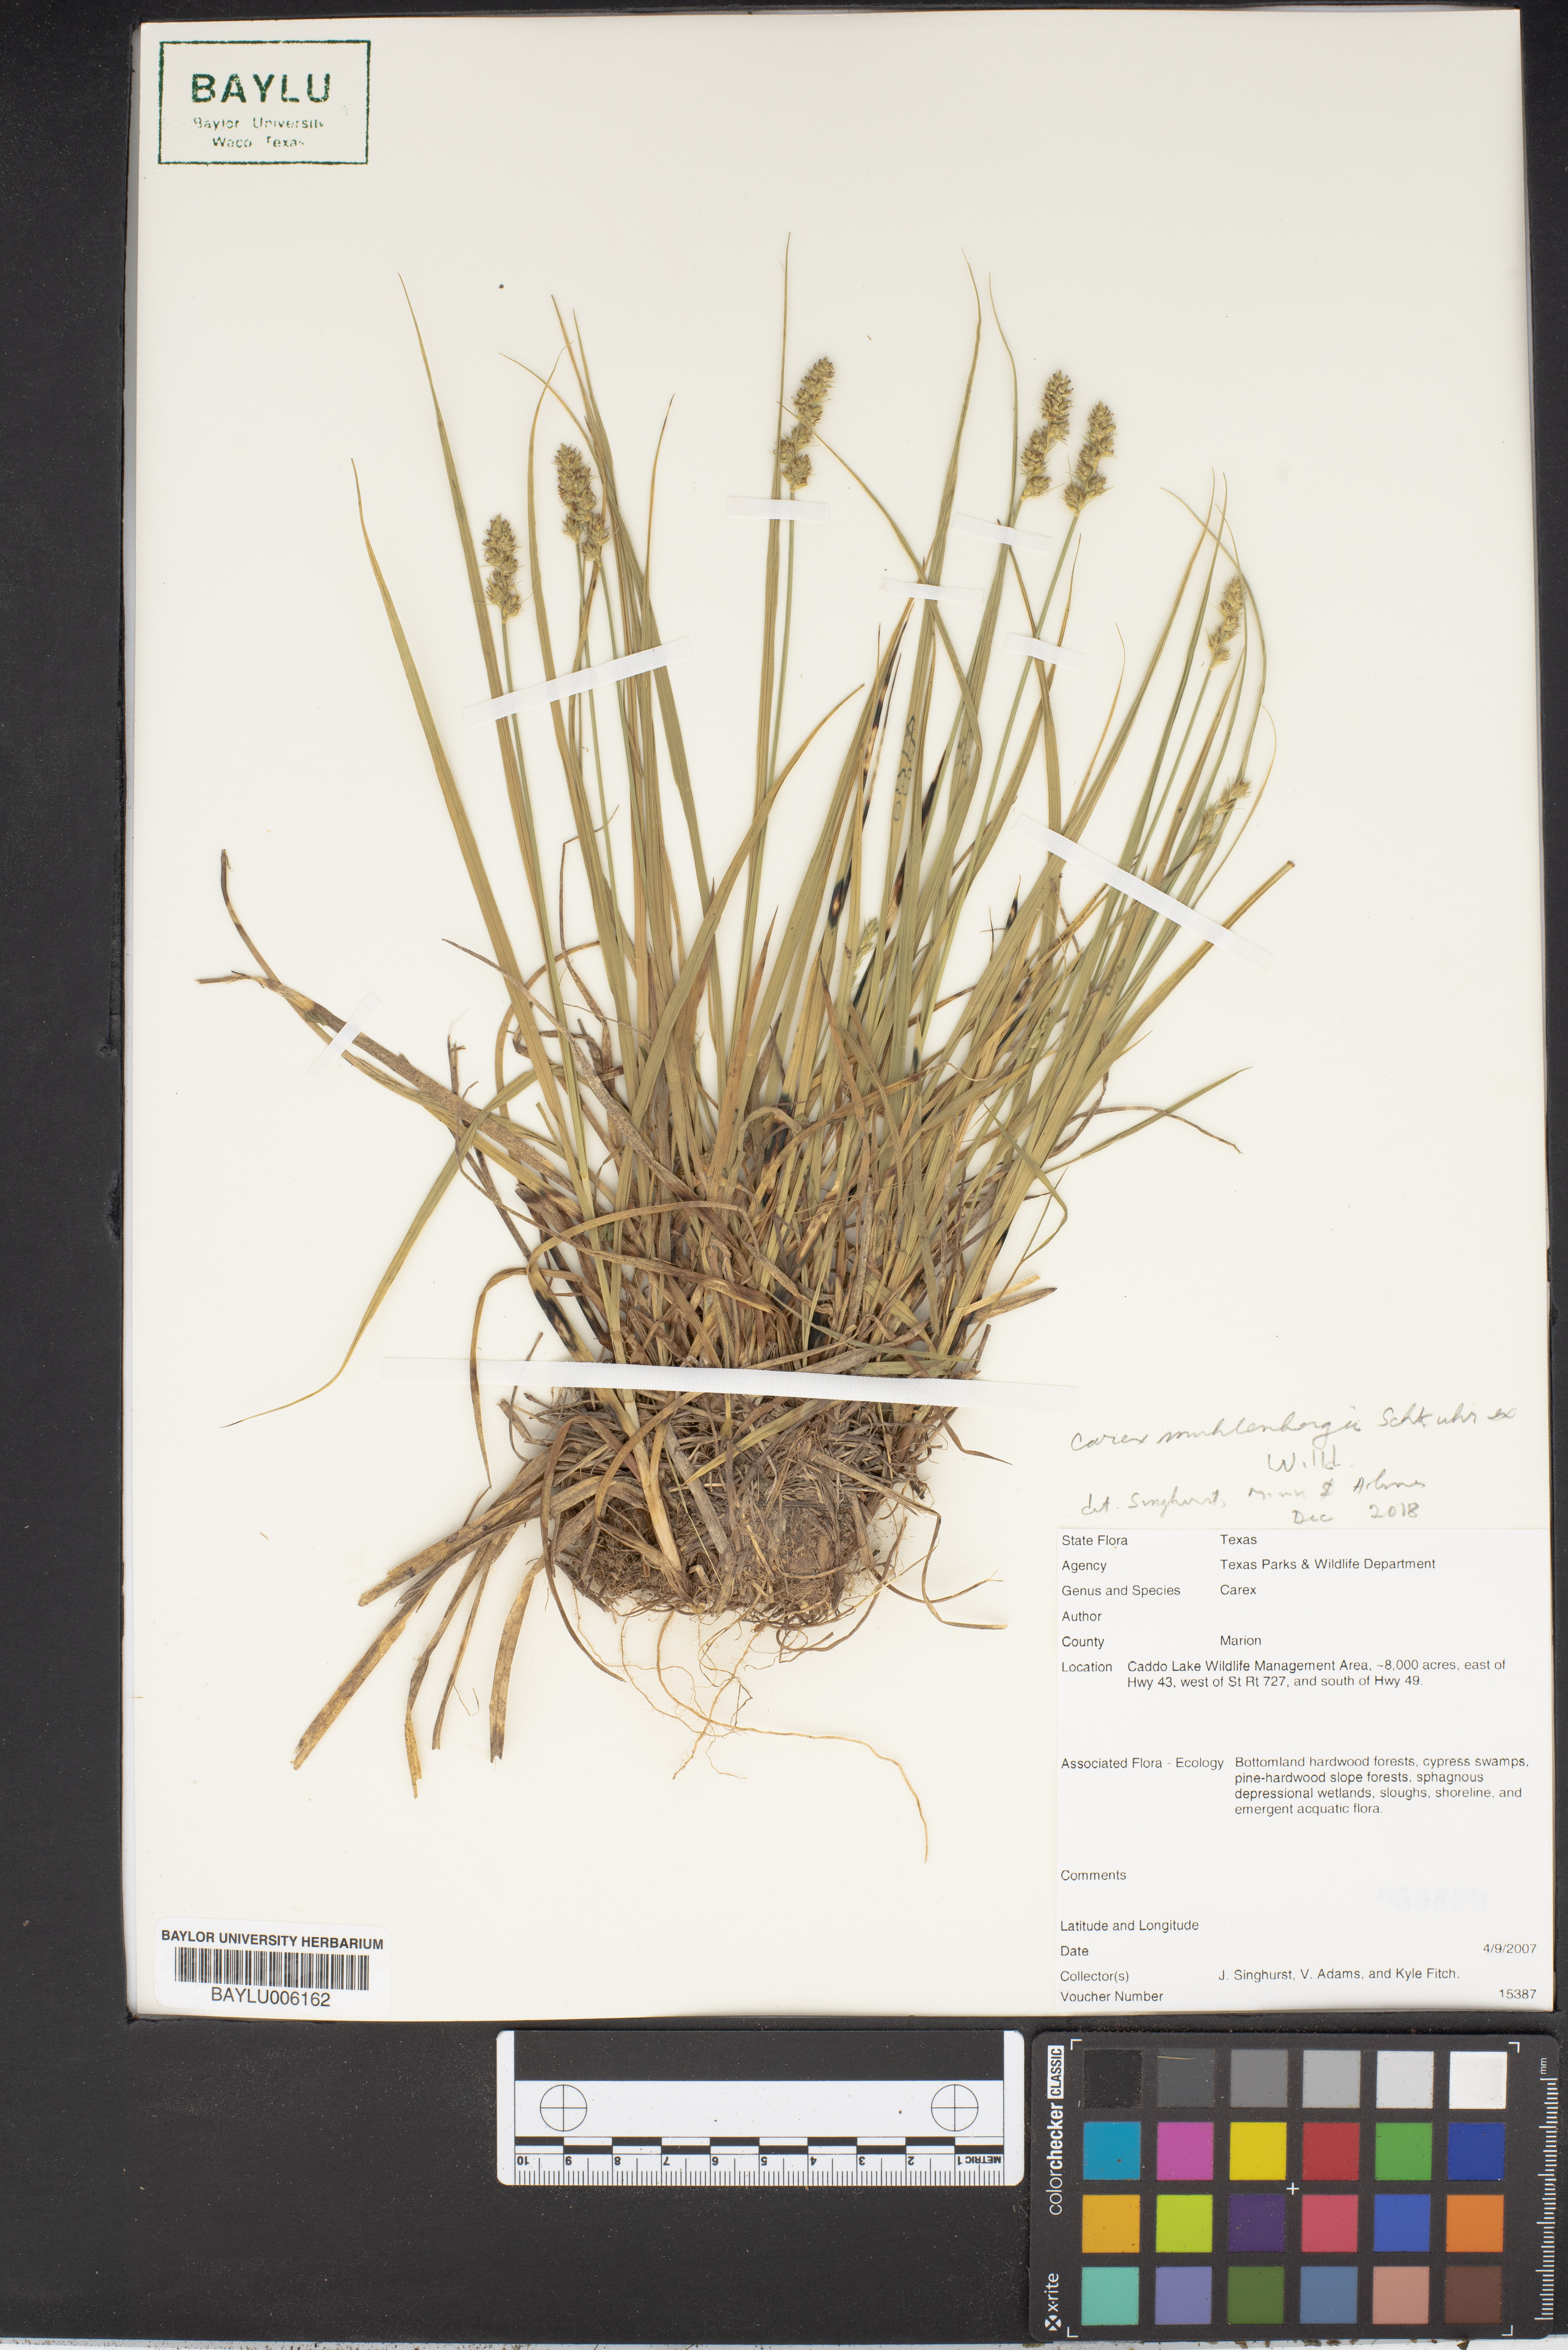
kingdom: Plantae
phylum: Tracheophyta
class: Liliopsida
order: Poales
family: Cyperaceae
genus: Carex
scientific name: Carex
